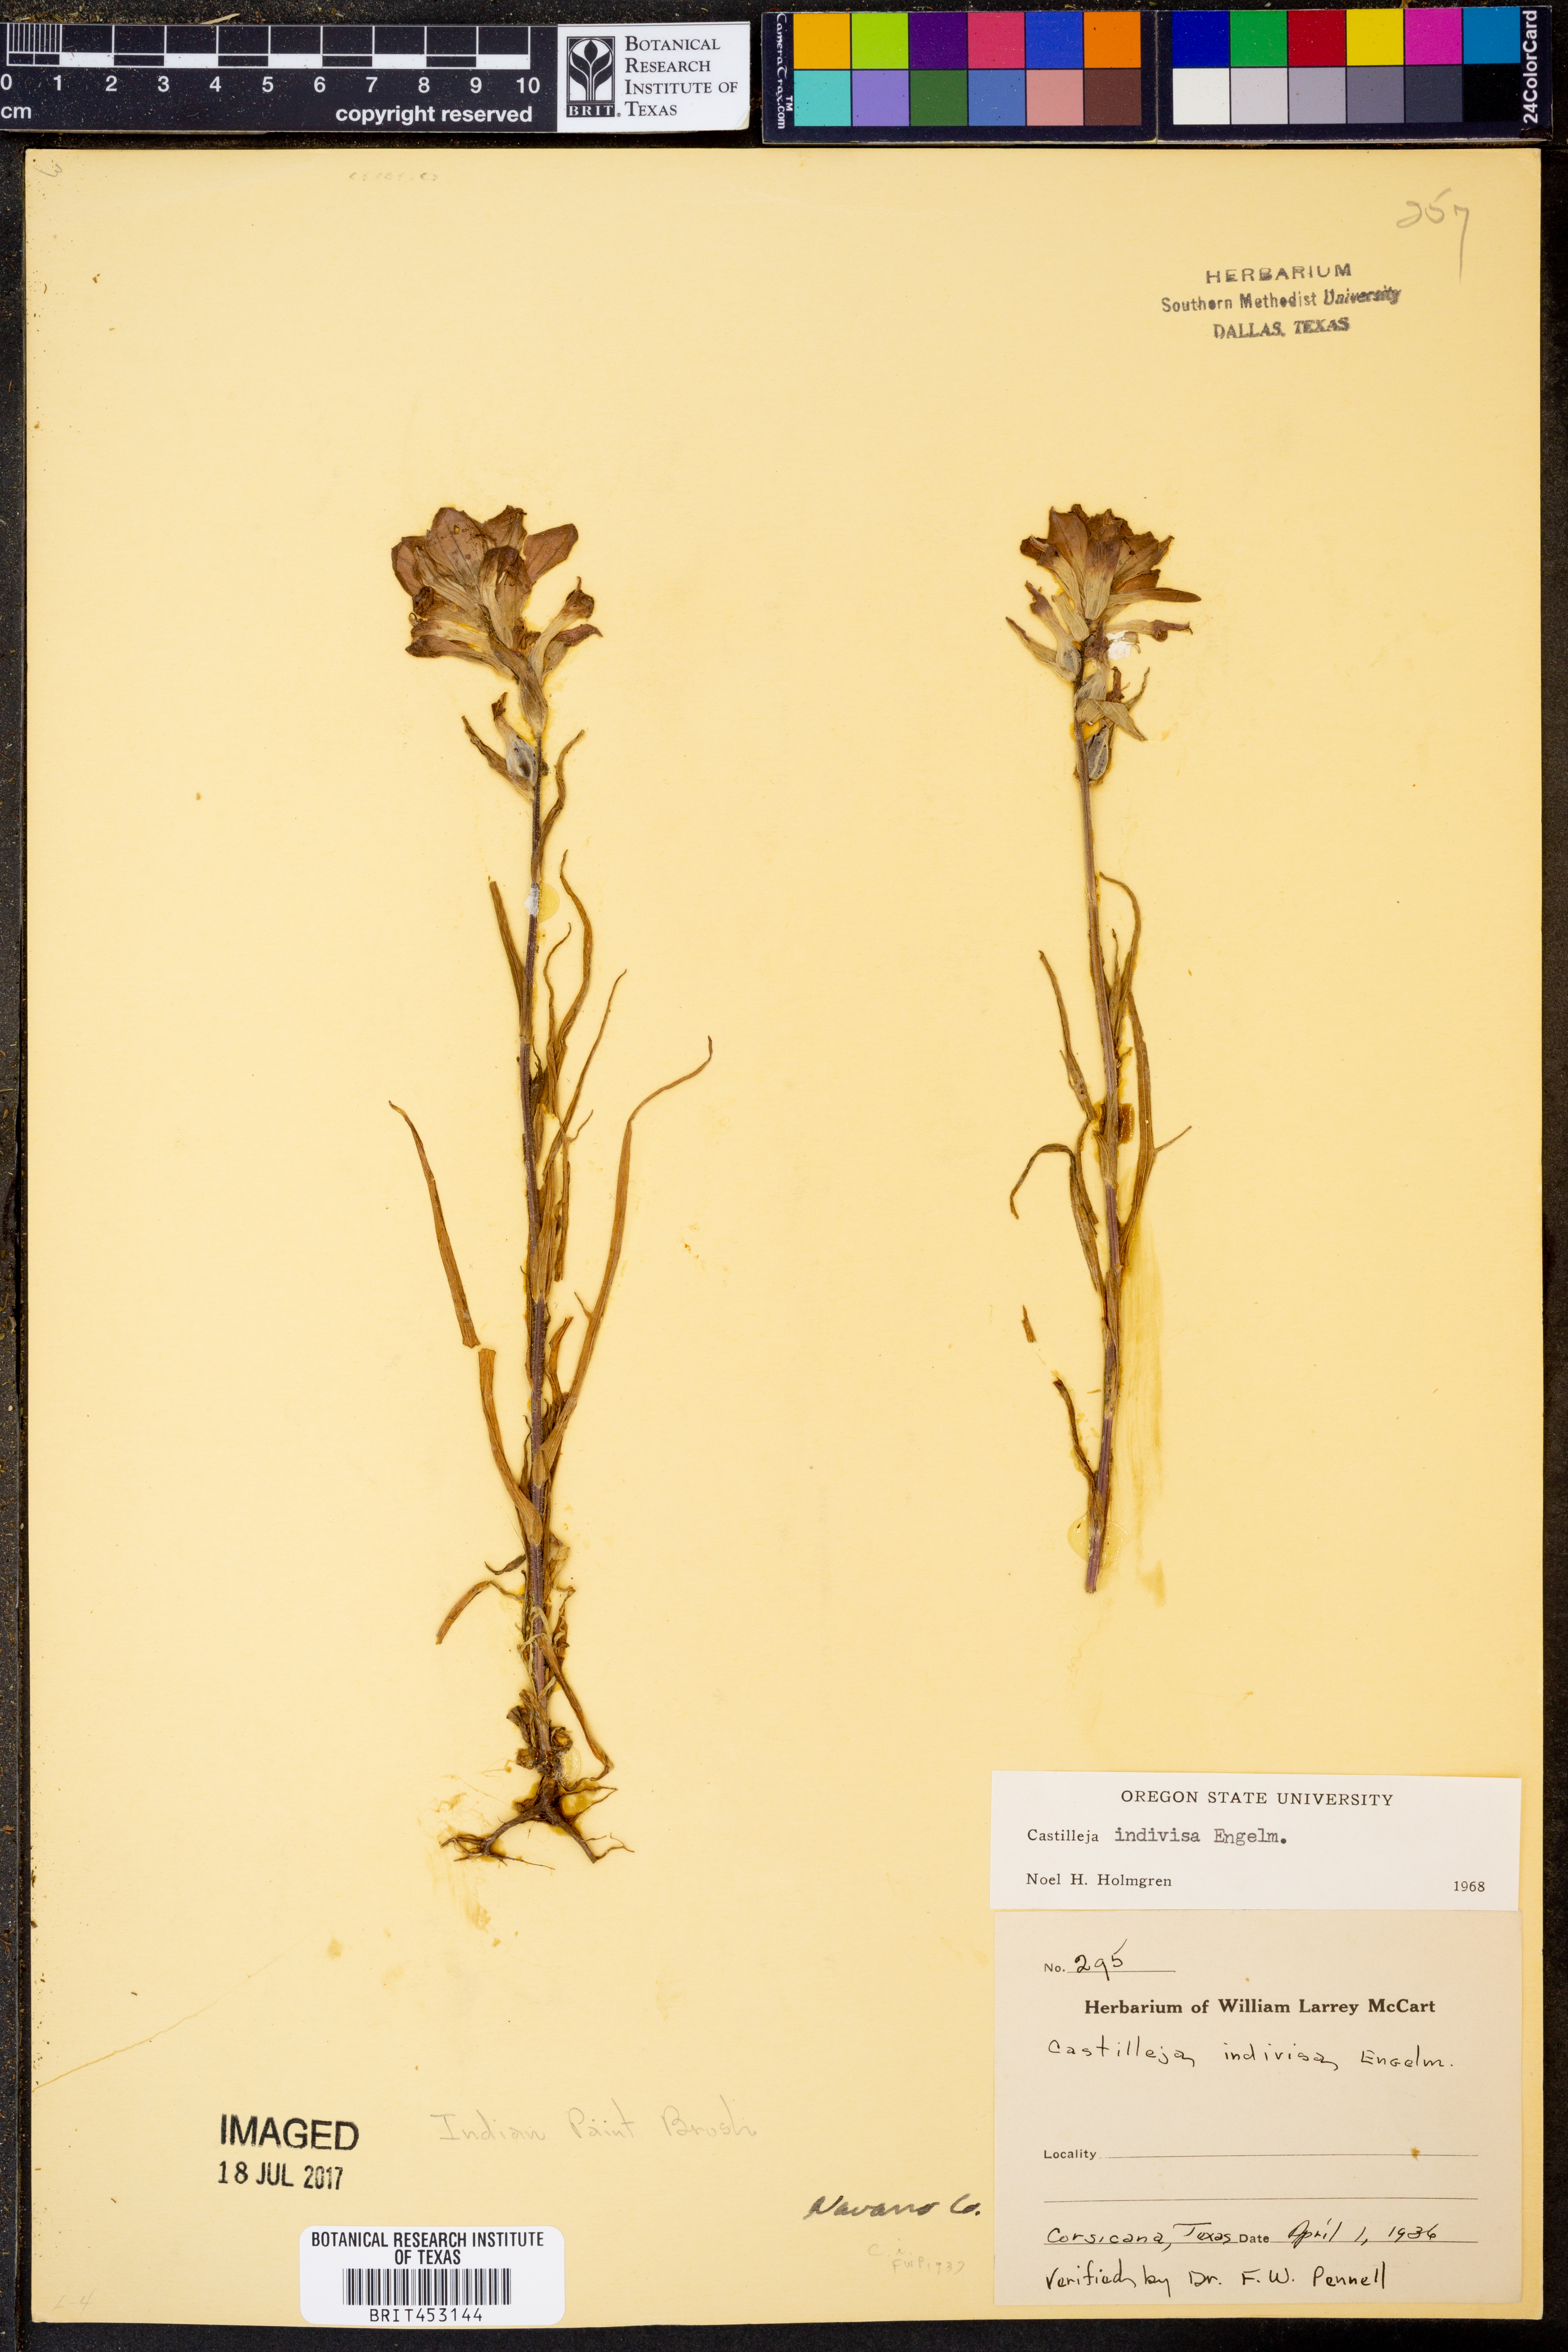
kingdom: Plantae
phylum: Tracheophyta
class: Magnoliopsida
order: Lamiales
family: Orobanchaceae
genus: Castilleja
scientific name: Castilleja indivisa
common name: Texas paintbrush
